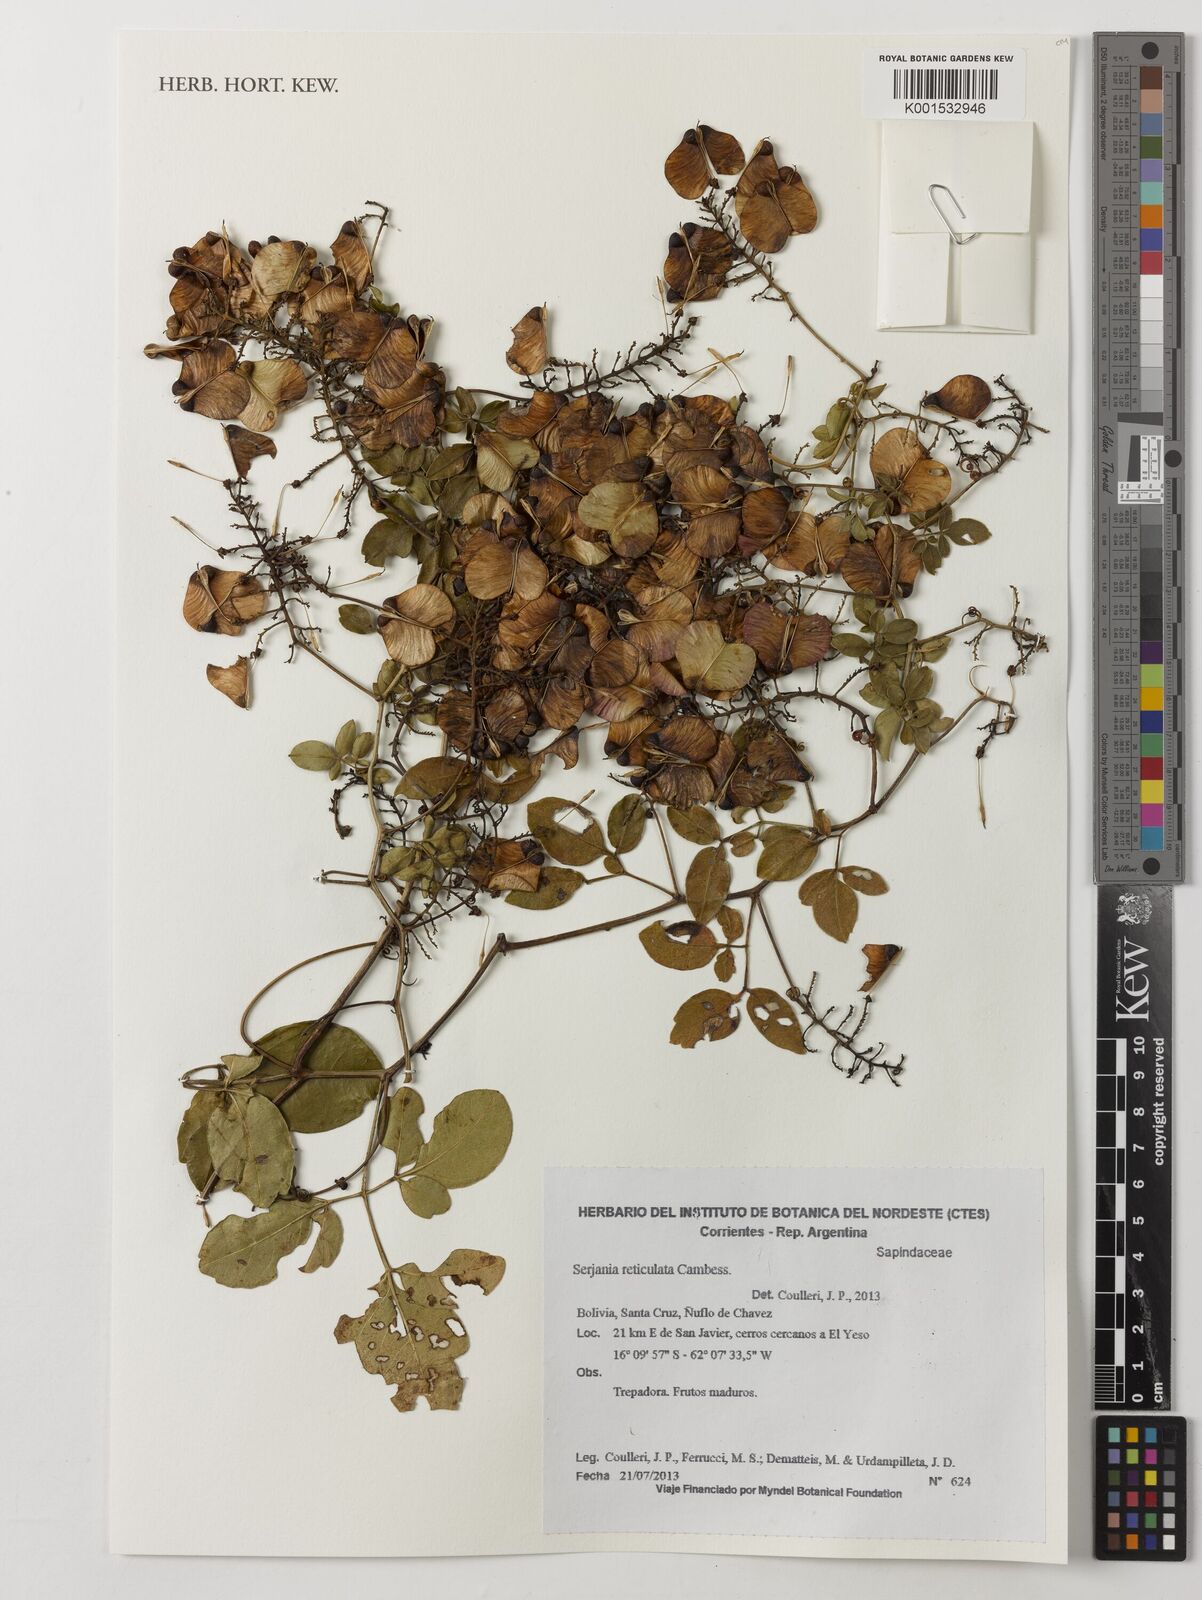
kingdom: Plantae
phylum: Tracheophyta
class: Magnoliopsida
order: Sapindales
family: Sapindaceae
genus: Serjania
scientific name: Serjania reticulata
